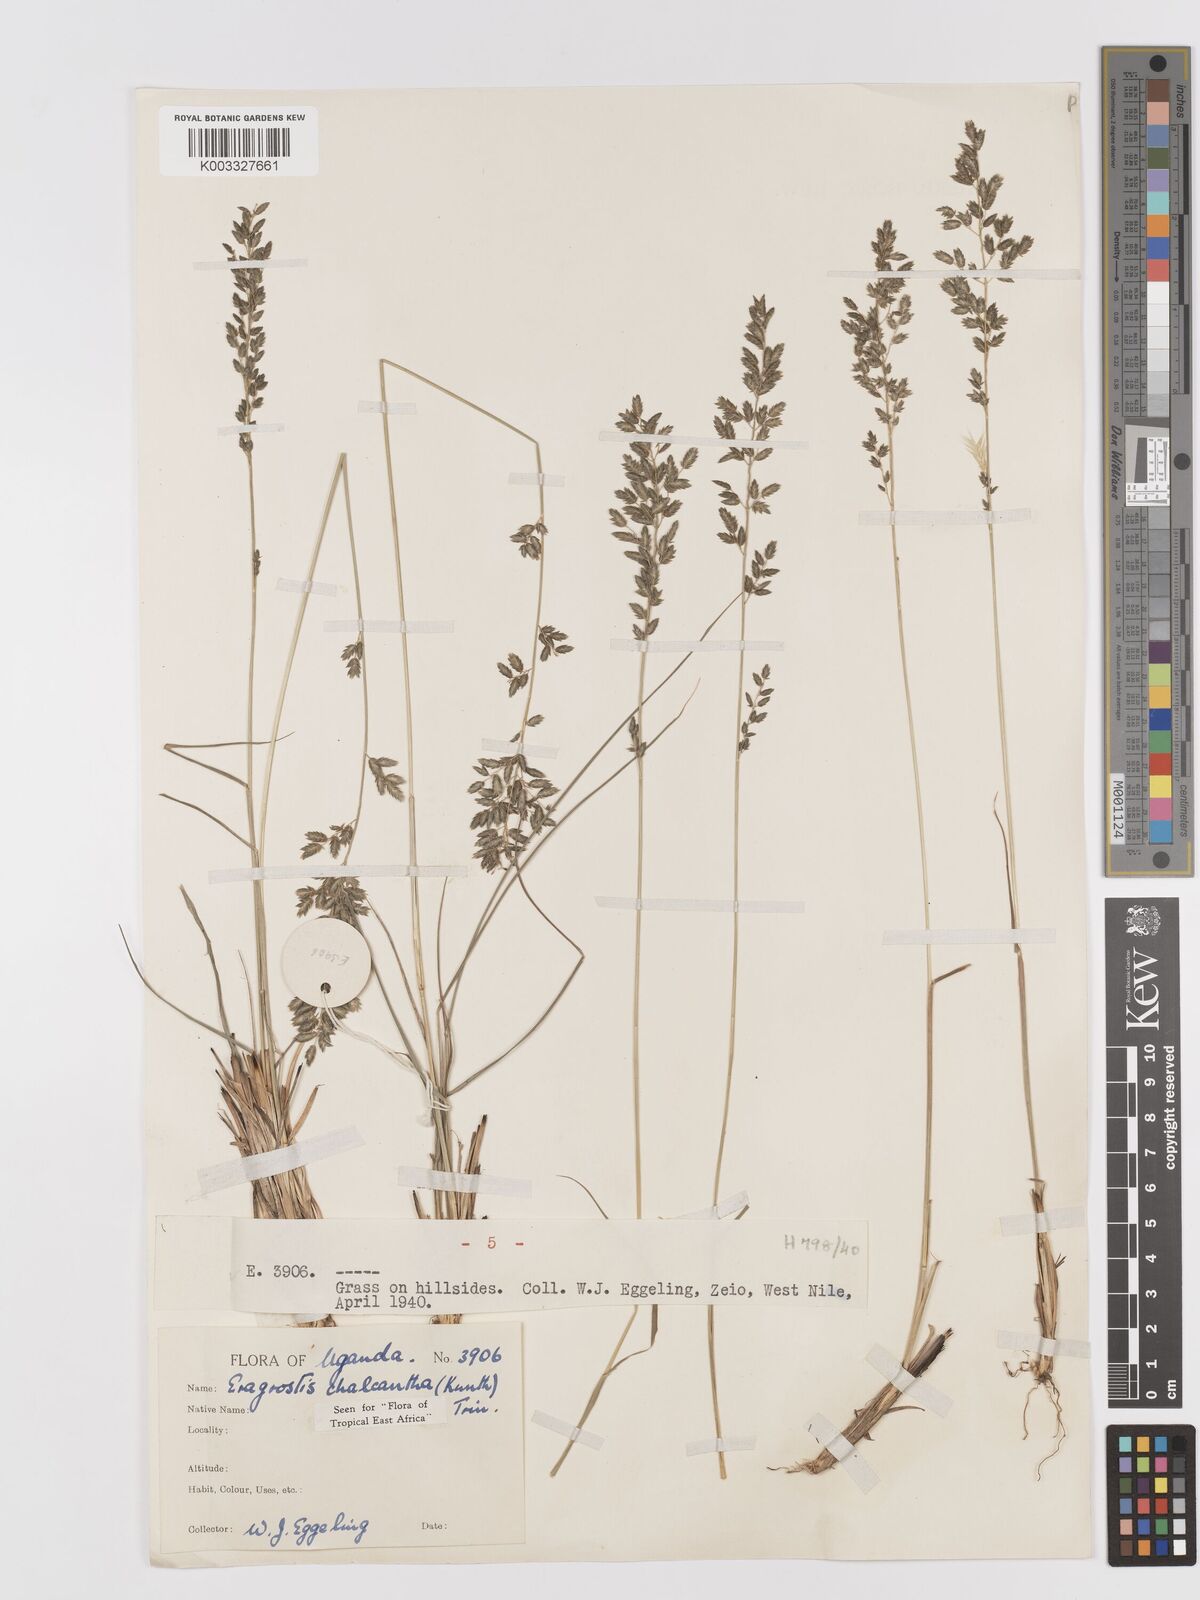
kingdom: Plantae
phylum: Tracheophyta
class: Liliopsida
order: Poales
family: Poaceae
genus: Eragrostis
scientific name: Eragrostis racemosa
